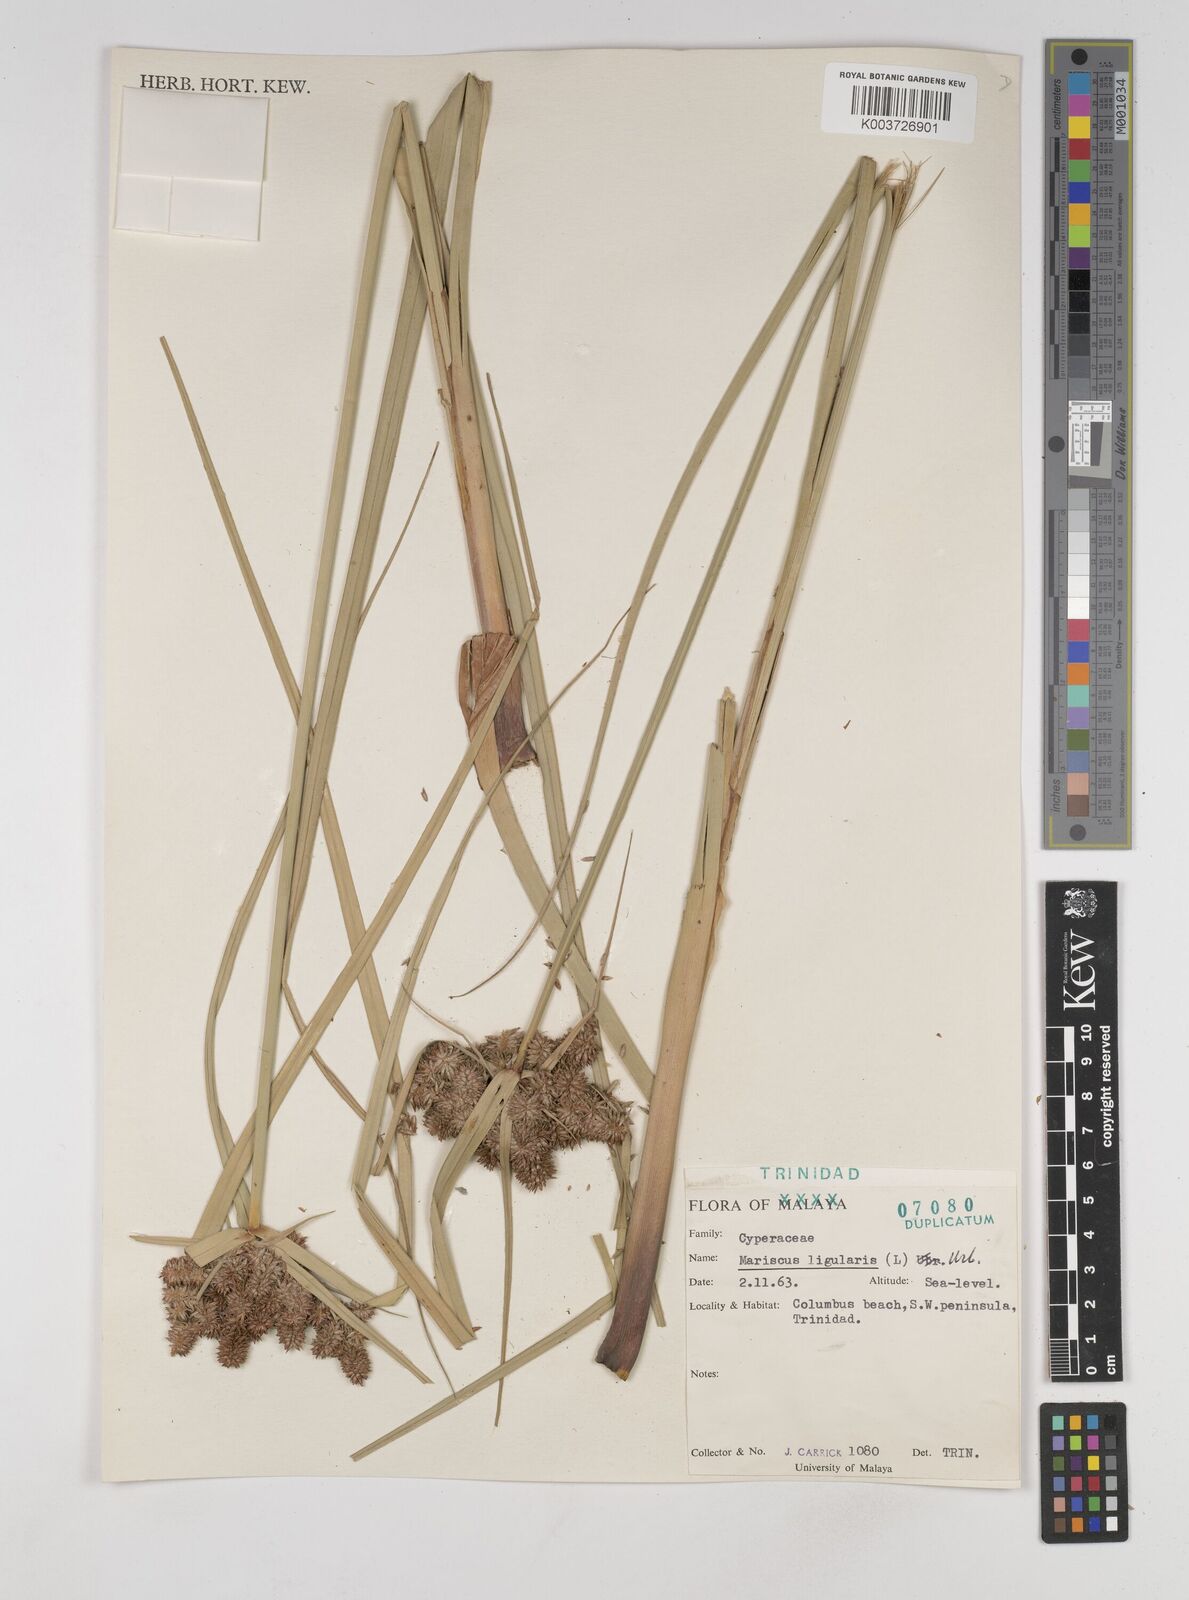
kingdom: Plantae
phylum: Tracheophyta
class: Liliopsida
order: Poales
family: Cyperaceae
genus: Cyperus
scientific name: Cyperus ligularis
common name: Swamp flat sedge
